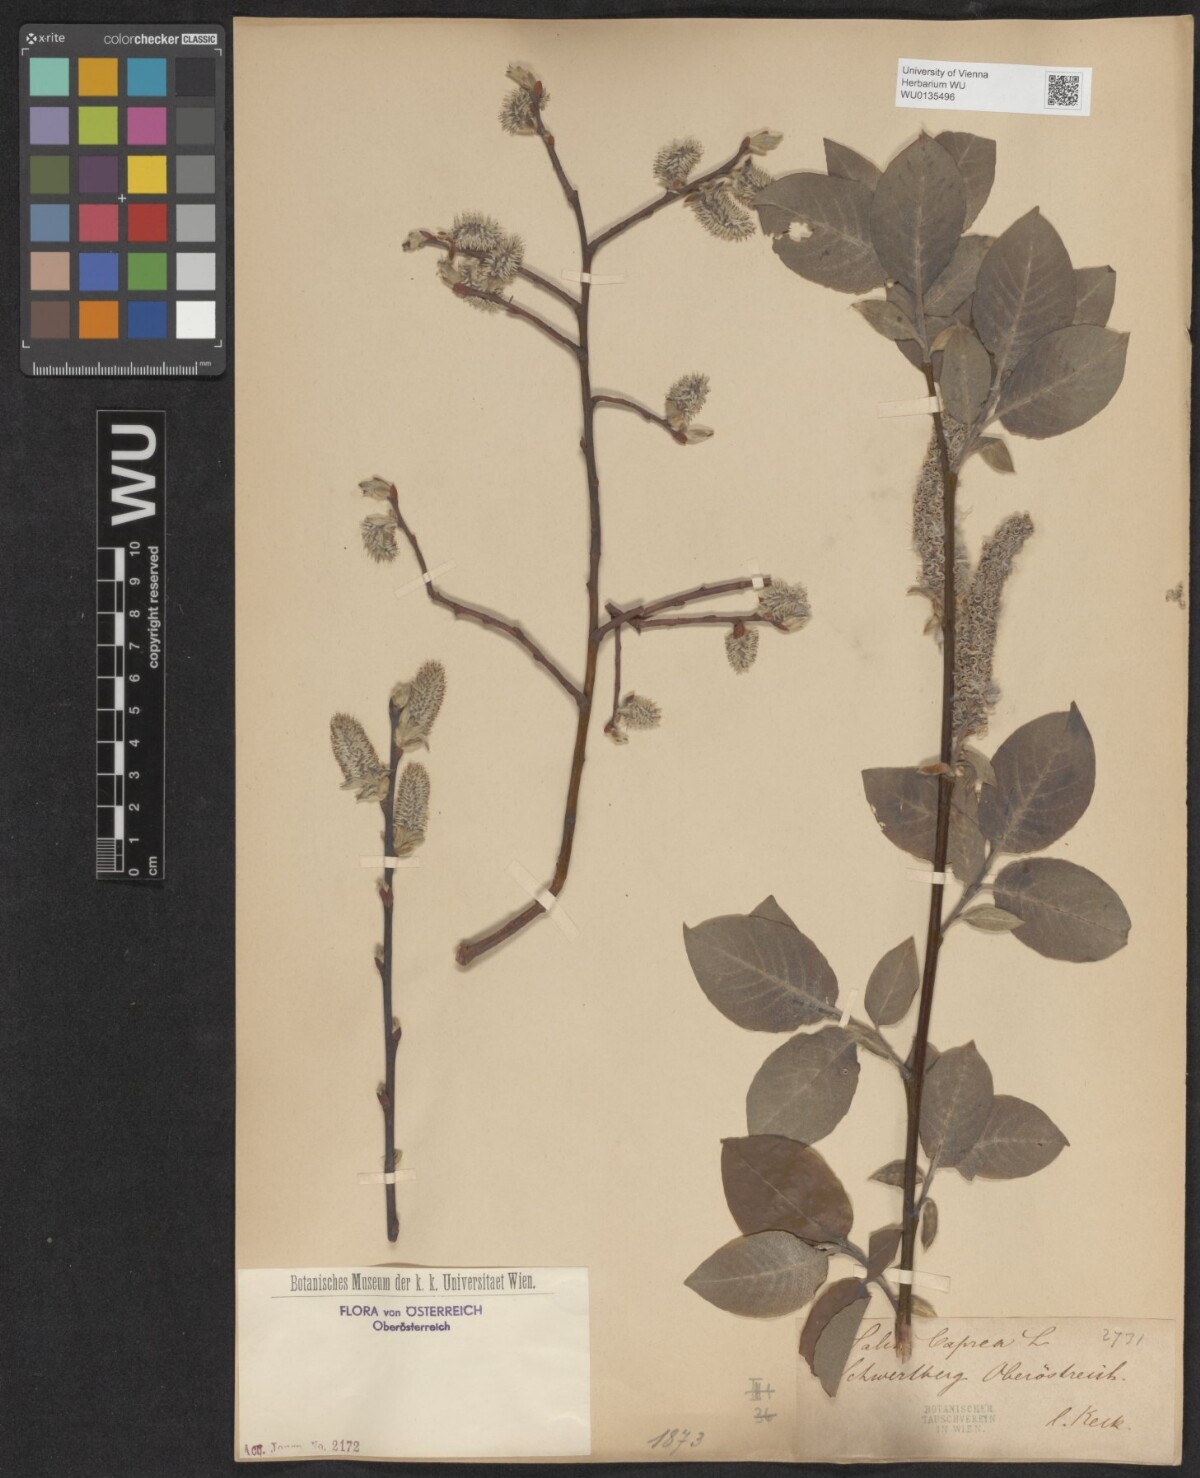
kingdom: Plantae
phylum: Tracheophyta
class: Magnoliopsida
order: Malpighiales
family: Salicaceae
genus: Salix
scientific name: Salix caprea
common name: Goat willow
